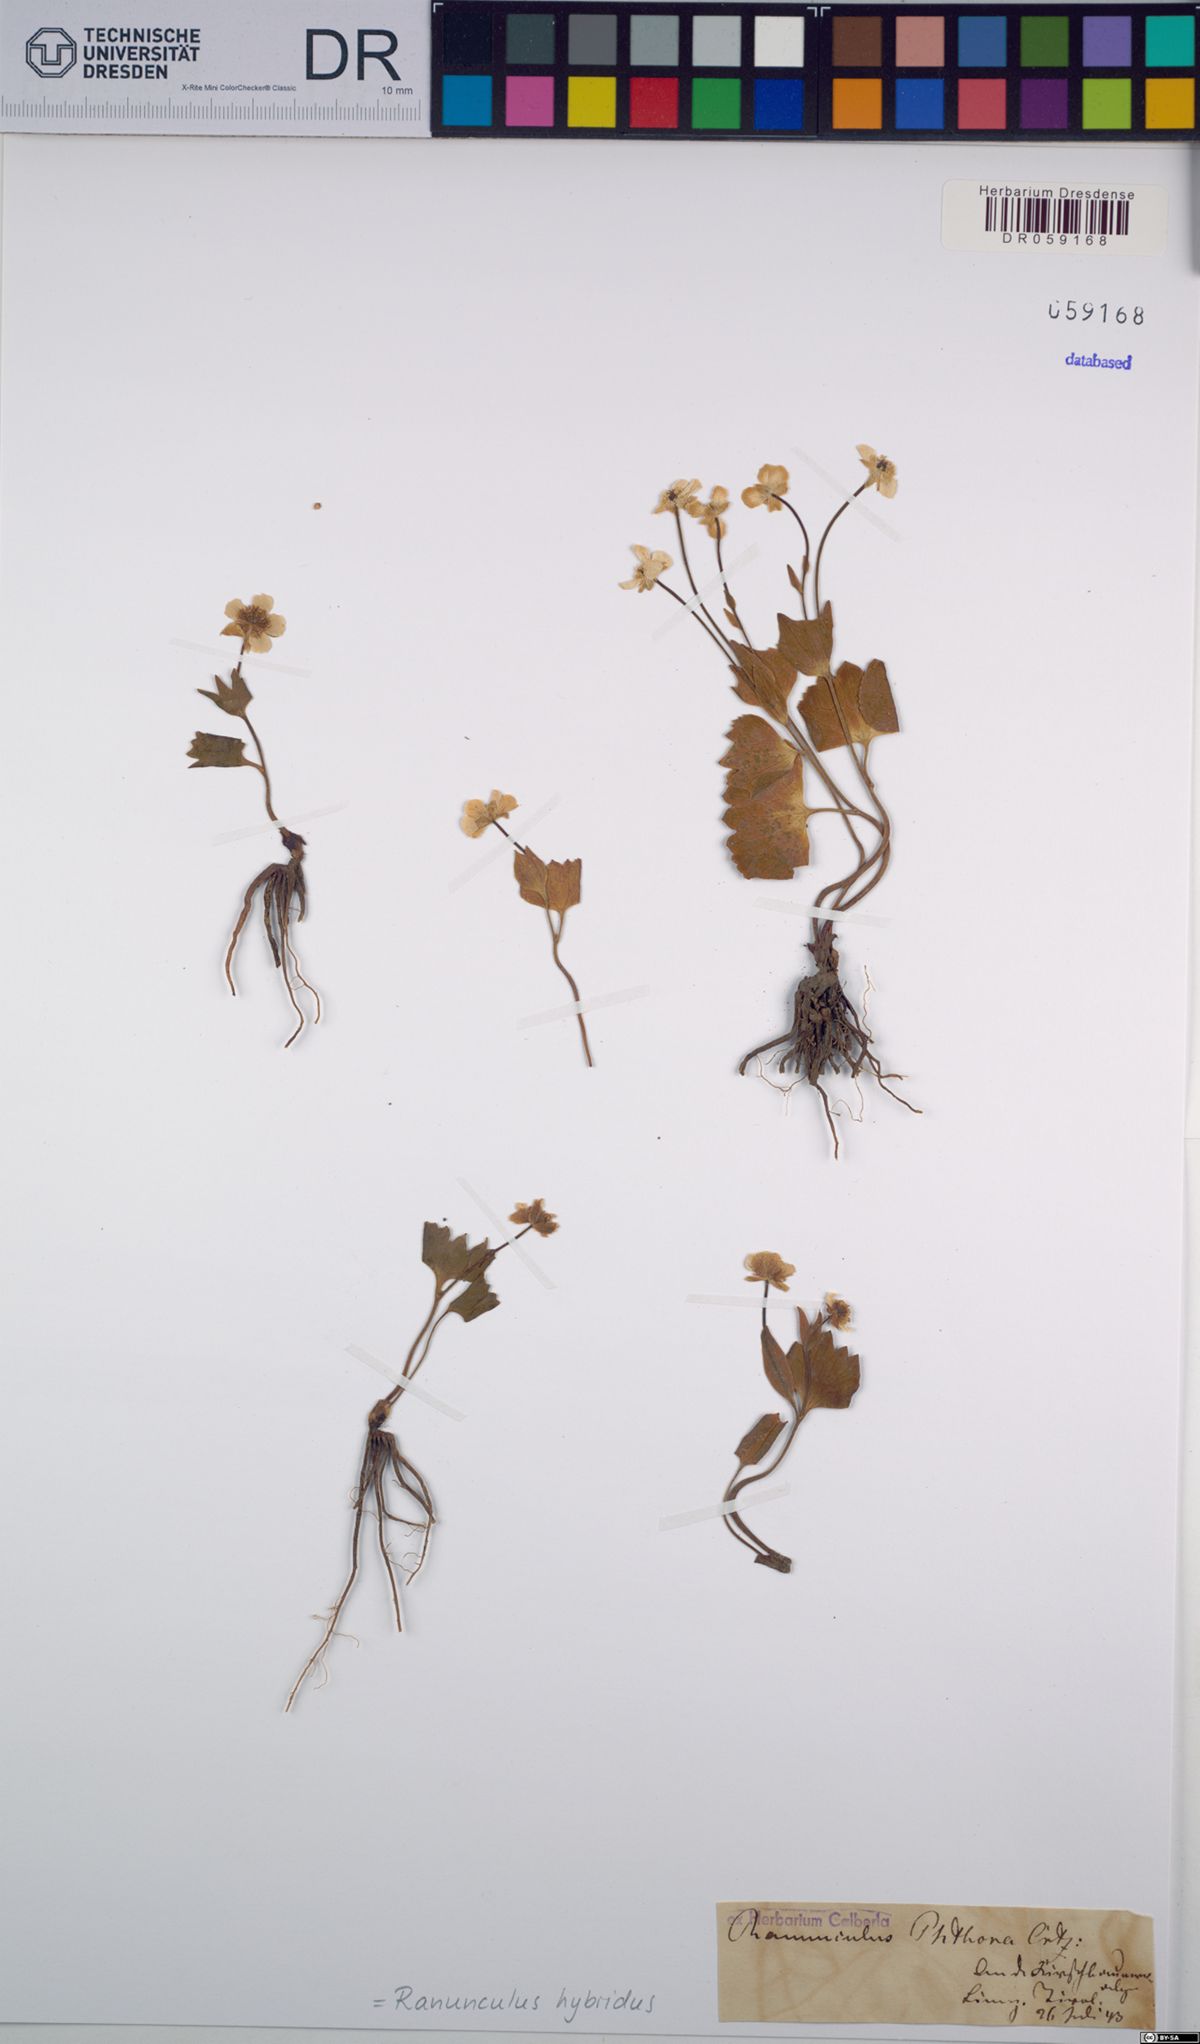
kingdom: Plantae
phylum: Tracheophyta
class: Magnoliopsida
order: Ranunculales
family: Ranunculaceae
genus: Ranunculus
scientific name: Ranunculus hybridus
